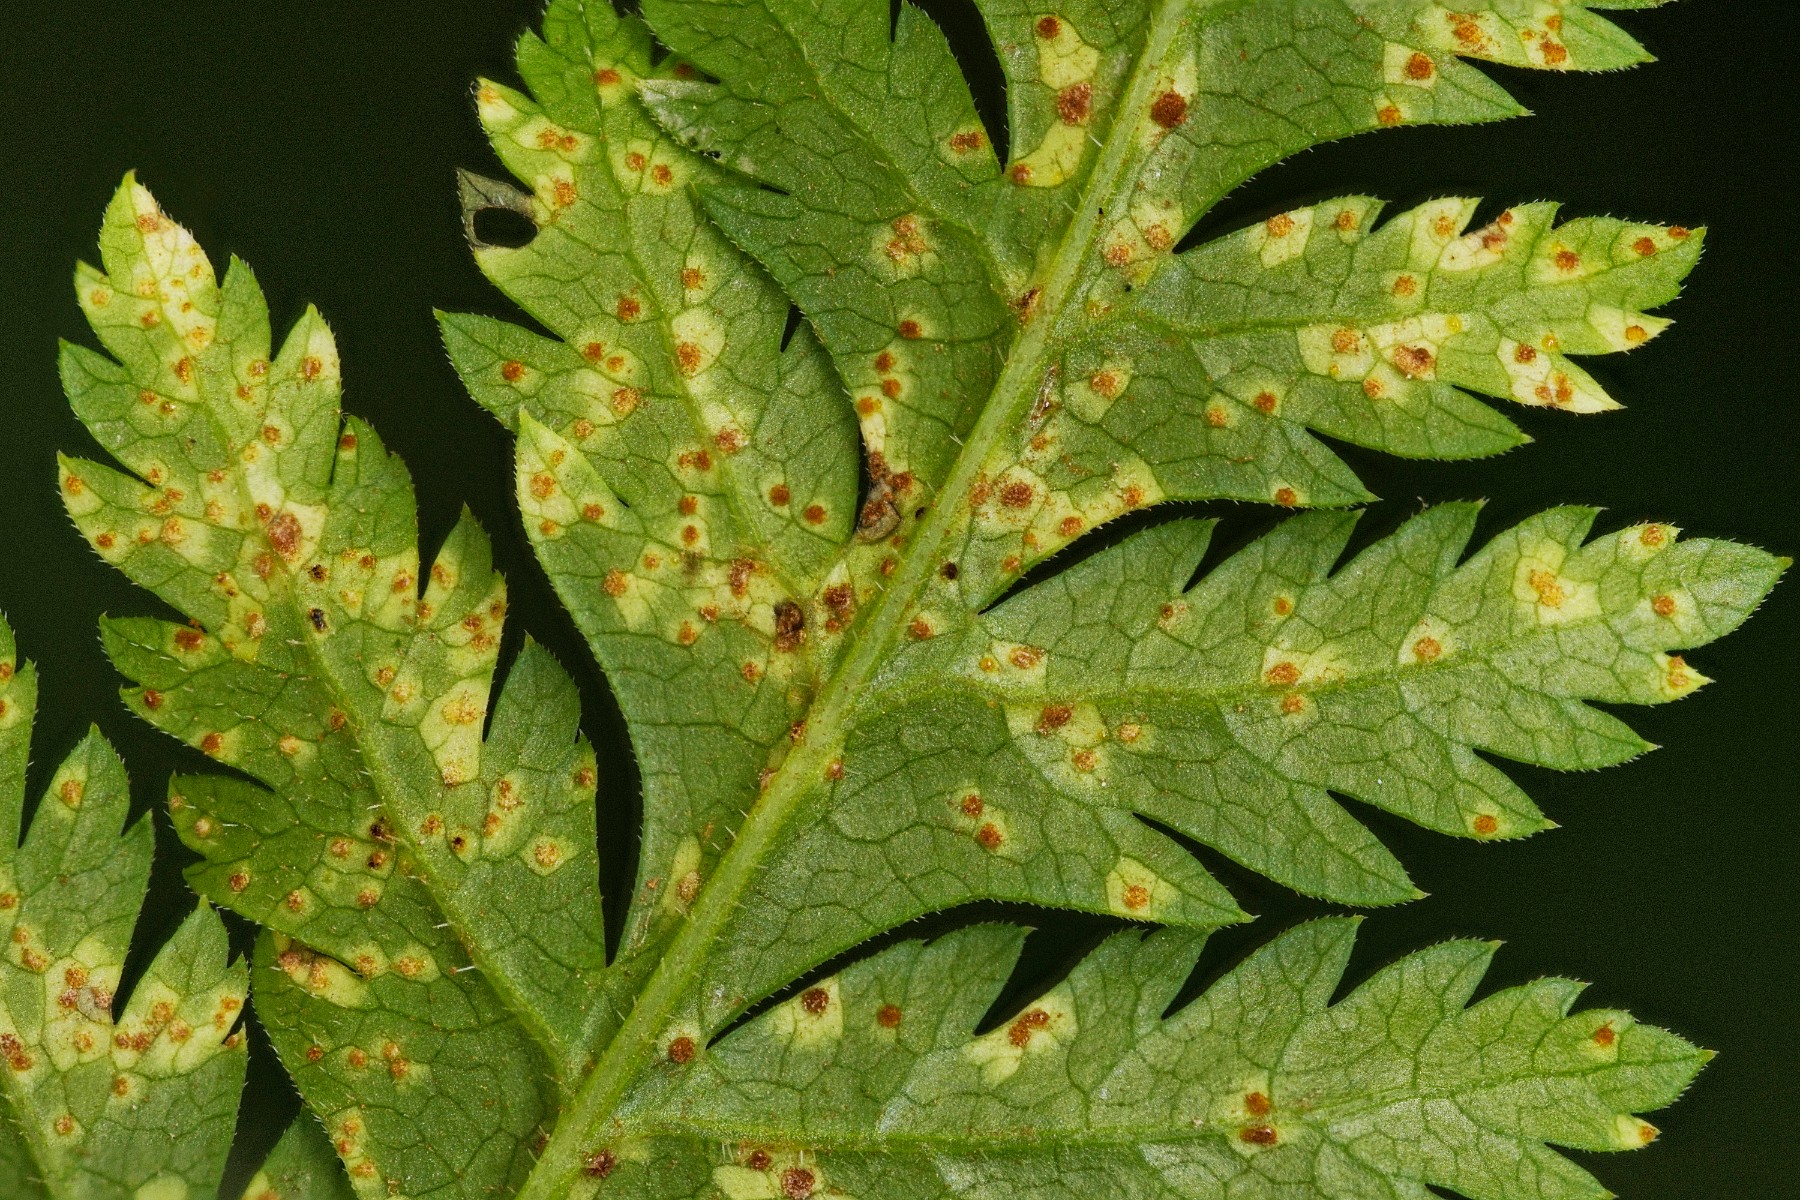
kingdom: Fungi
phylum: Basidiomycota
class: Pucciniomycetes
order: Pucciniales
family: Pucciniaceae
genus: Puccinia
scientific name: Puccinia chaerophylli
